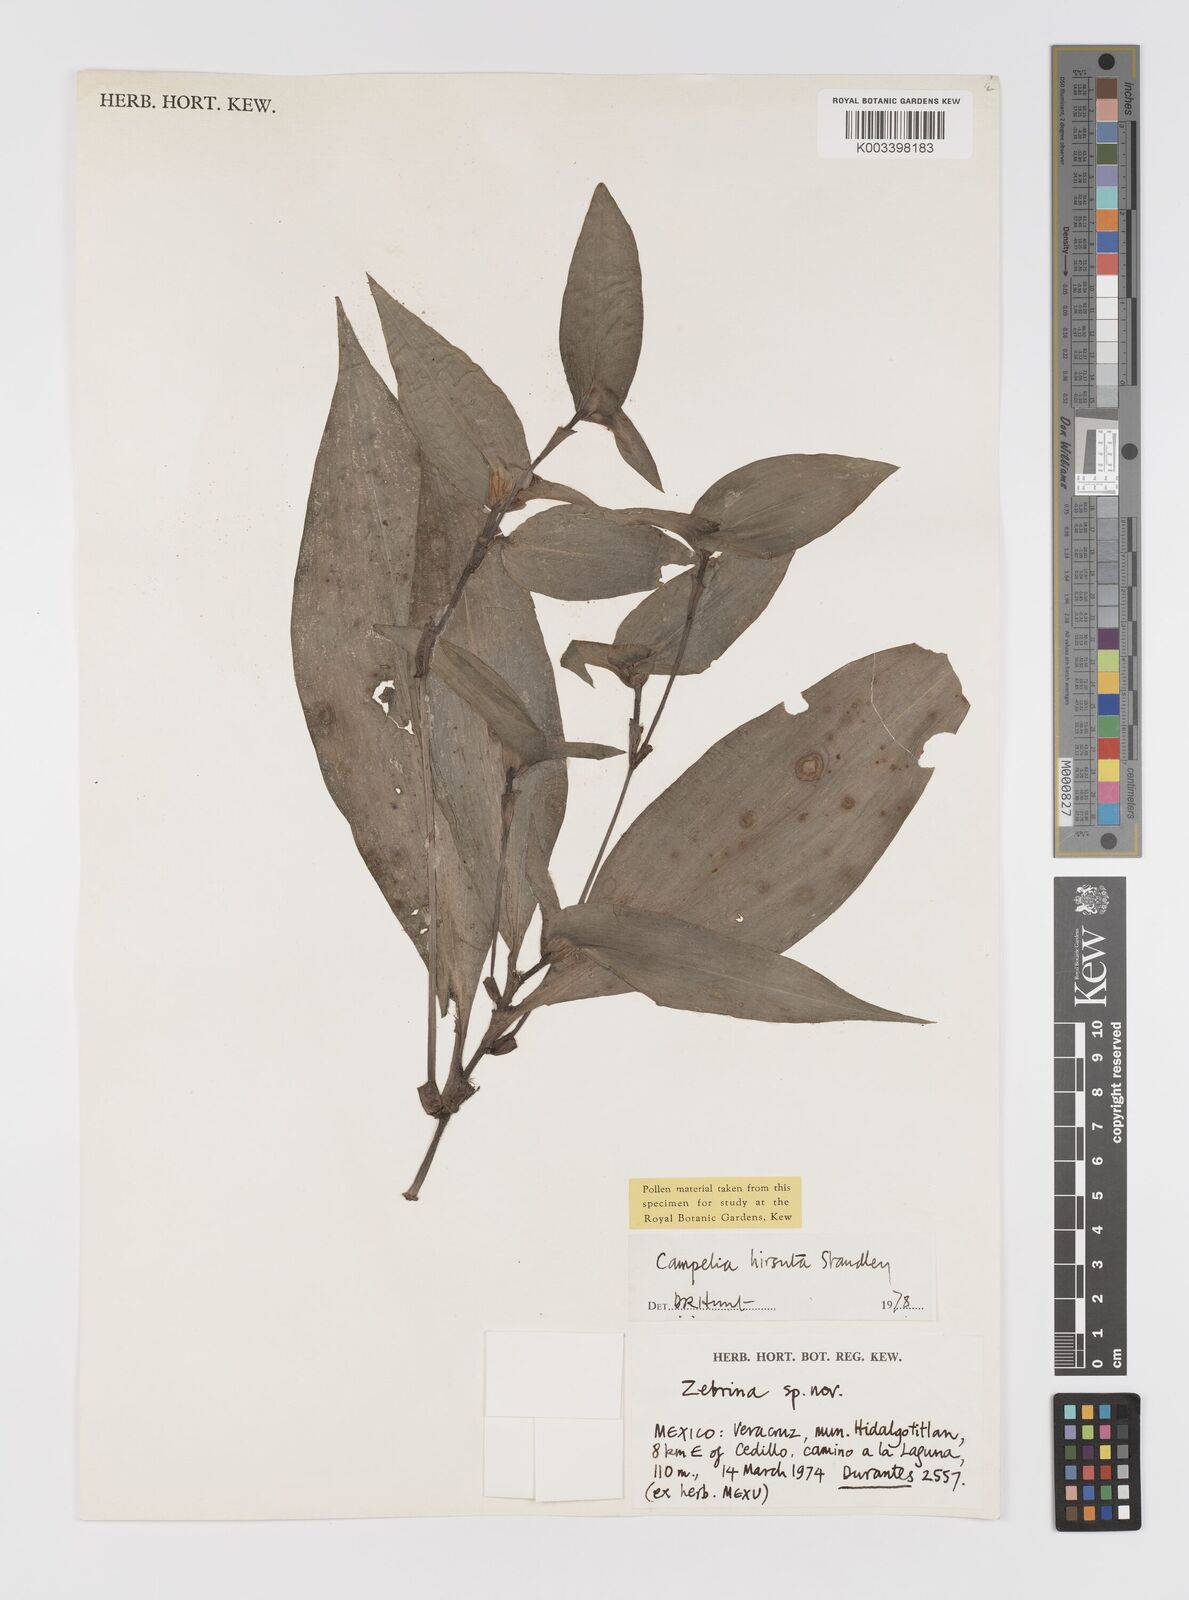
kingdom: Plantae
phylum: Tracheophyta
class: Liliopsida
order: Commelinales
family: Commelinaceae
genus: Tradescantia
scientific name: Tradescantia schippii
